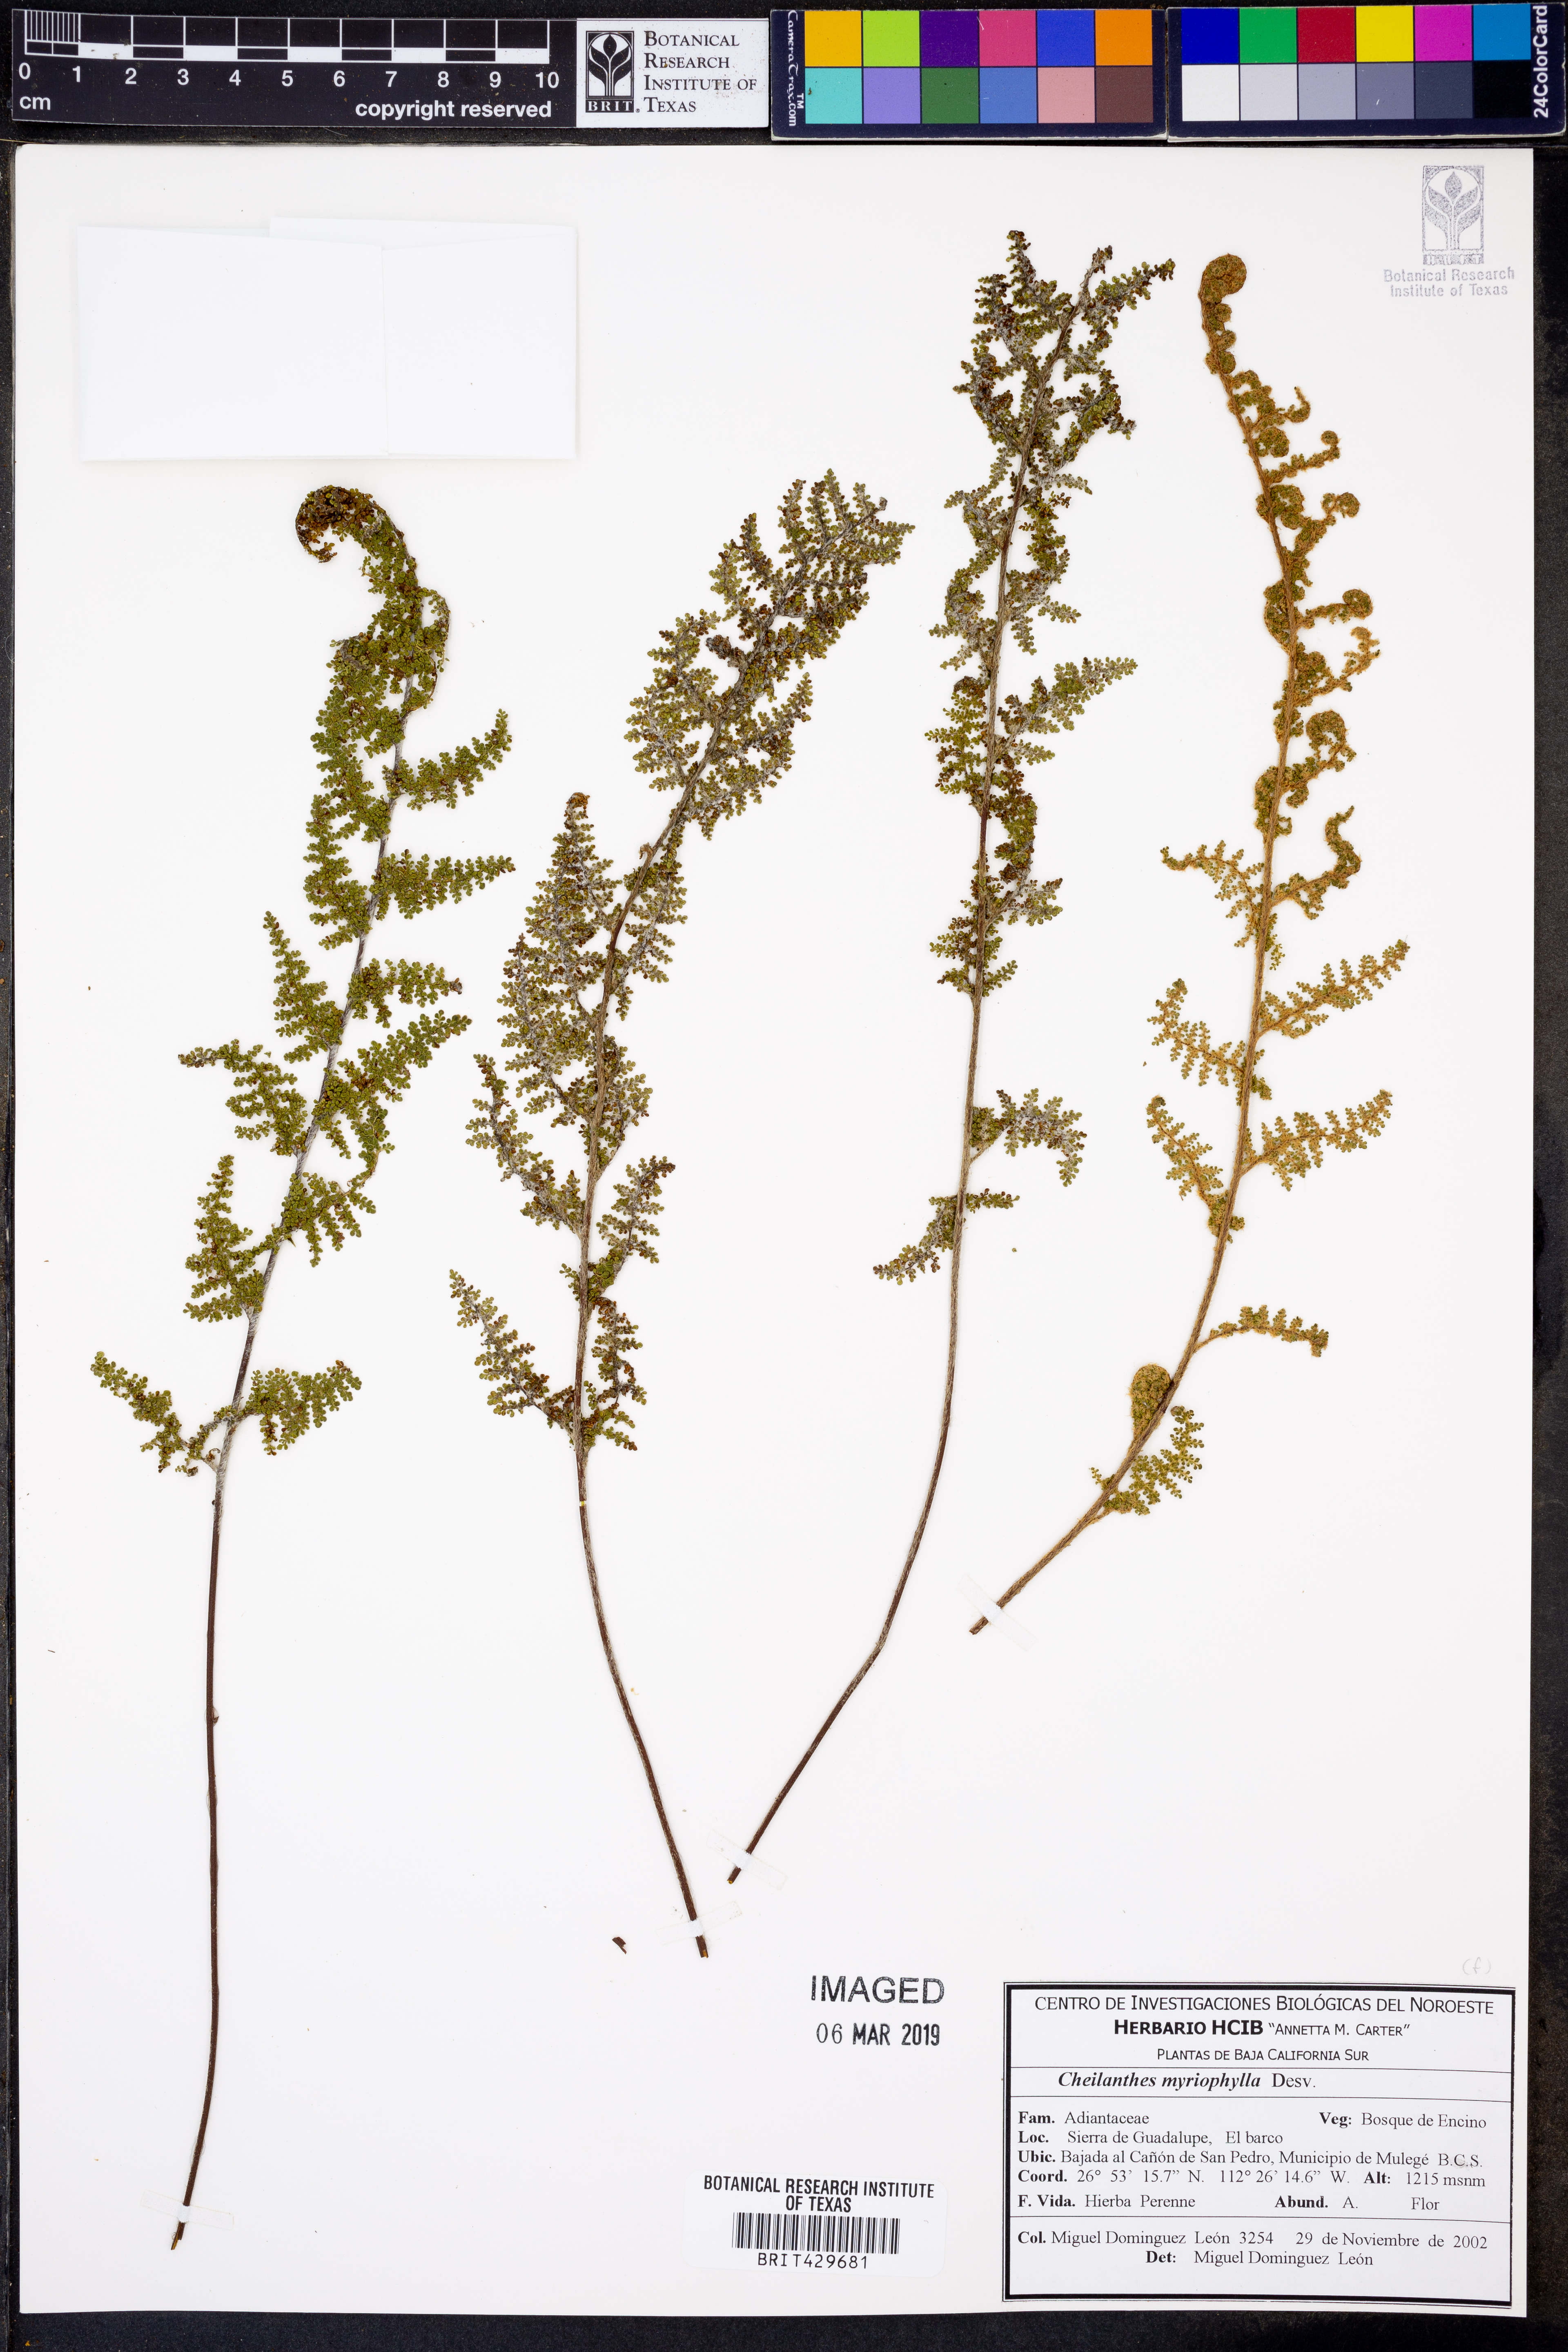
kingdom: Plantae
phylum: Tracheophyta
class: Polypodiopsida
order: Polypodiales
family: Pteridaceae
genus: Myriopteris
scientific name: Myriopteris myriophylla
